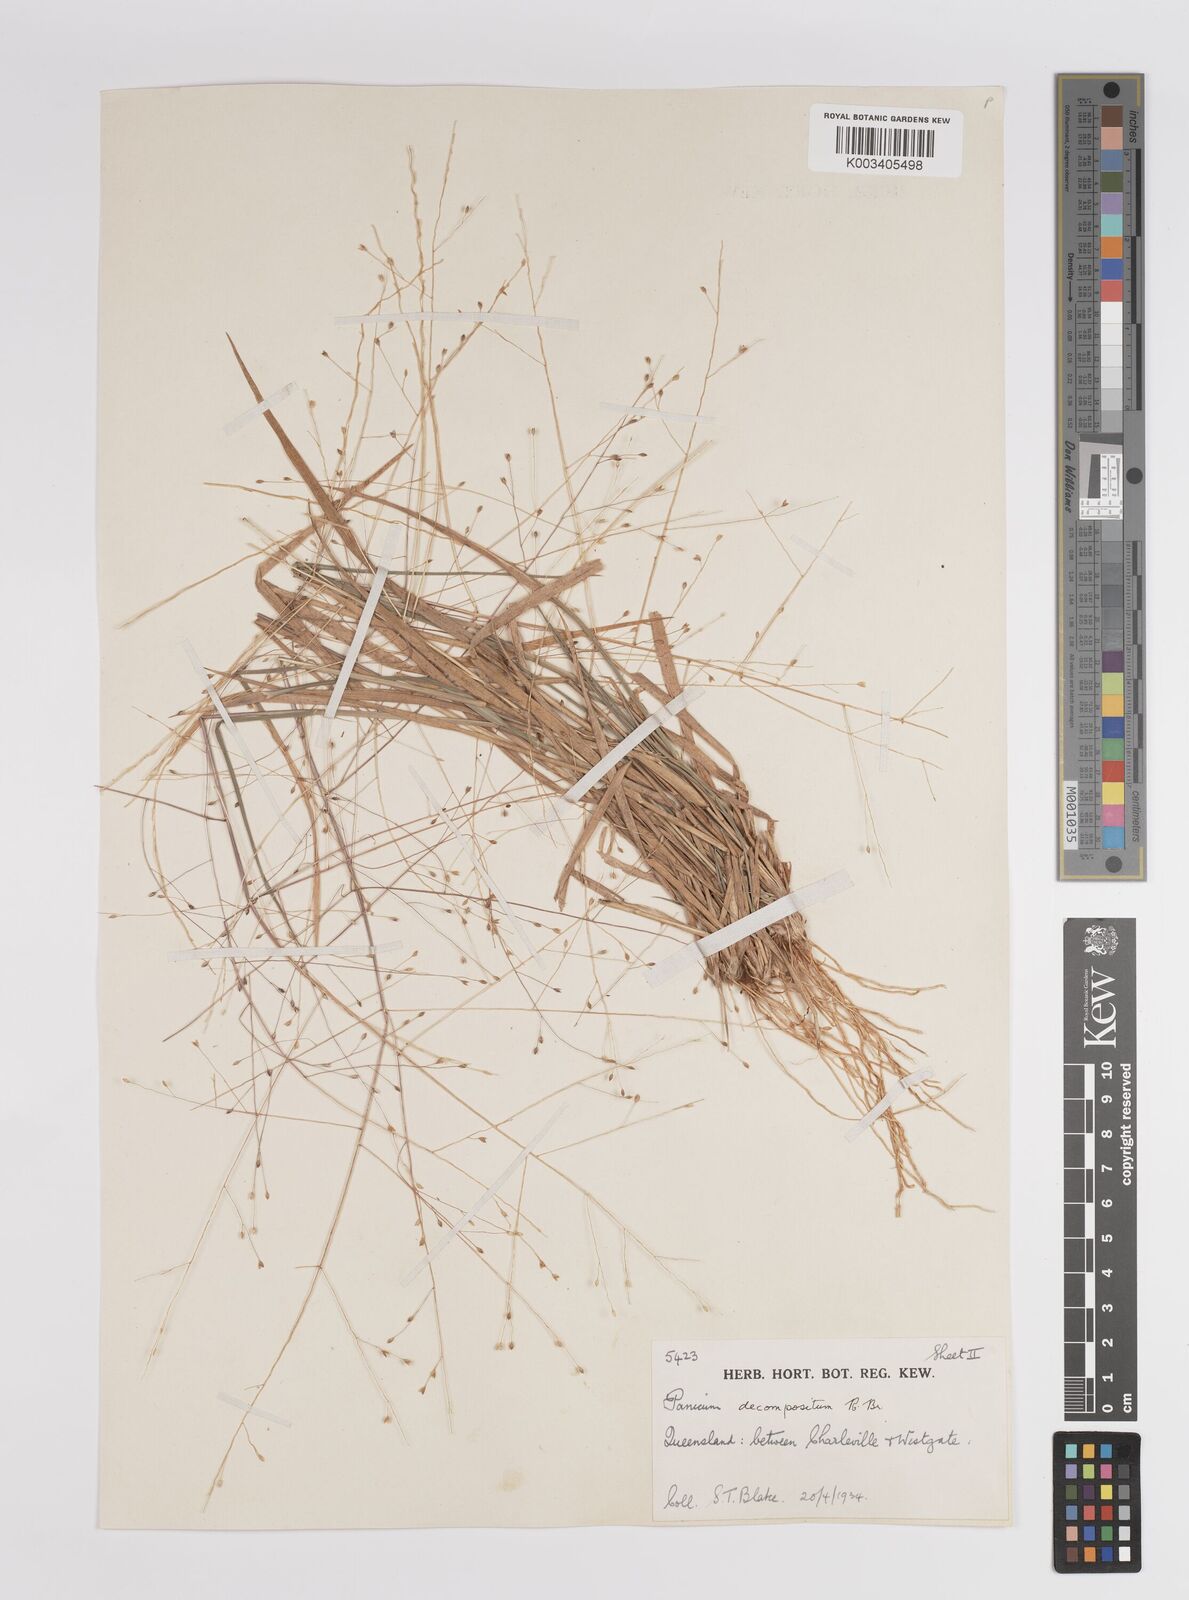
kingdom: Plantae
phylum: Tracheophyta
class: Liliopsida
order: Poales
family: Poaceae
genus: Panicum
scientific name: Panicum
